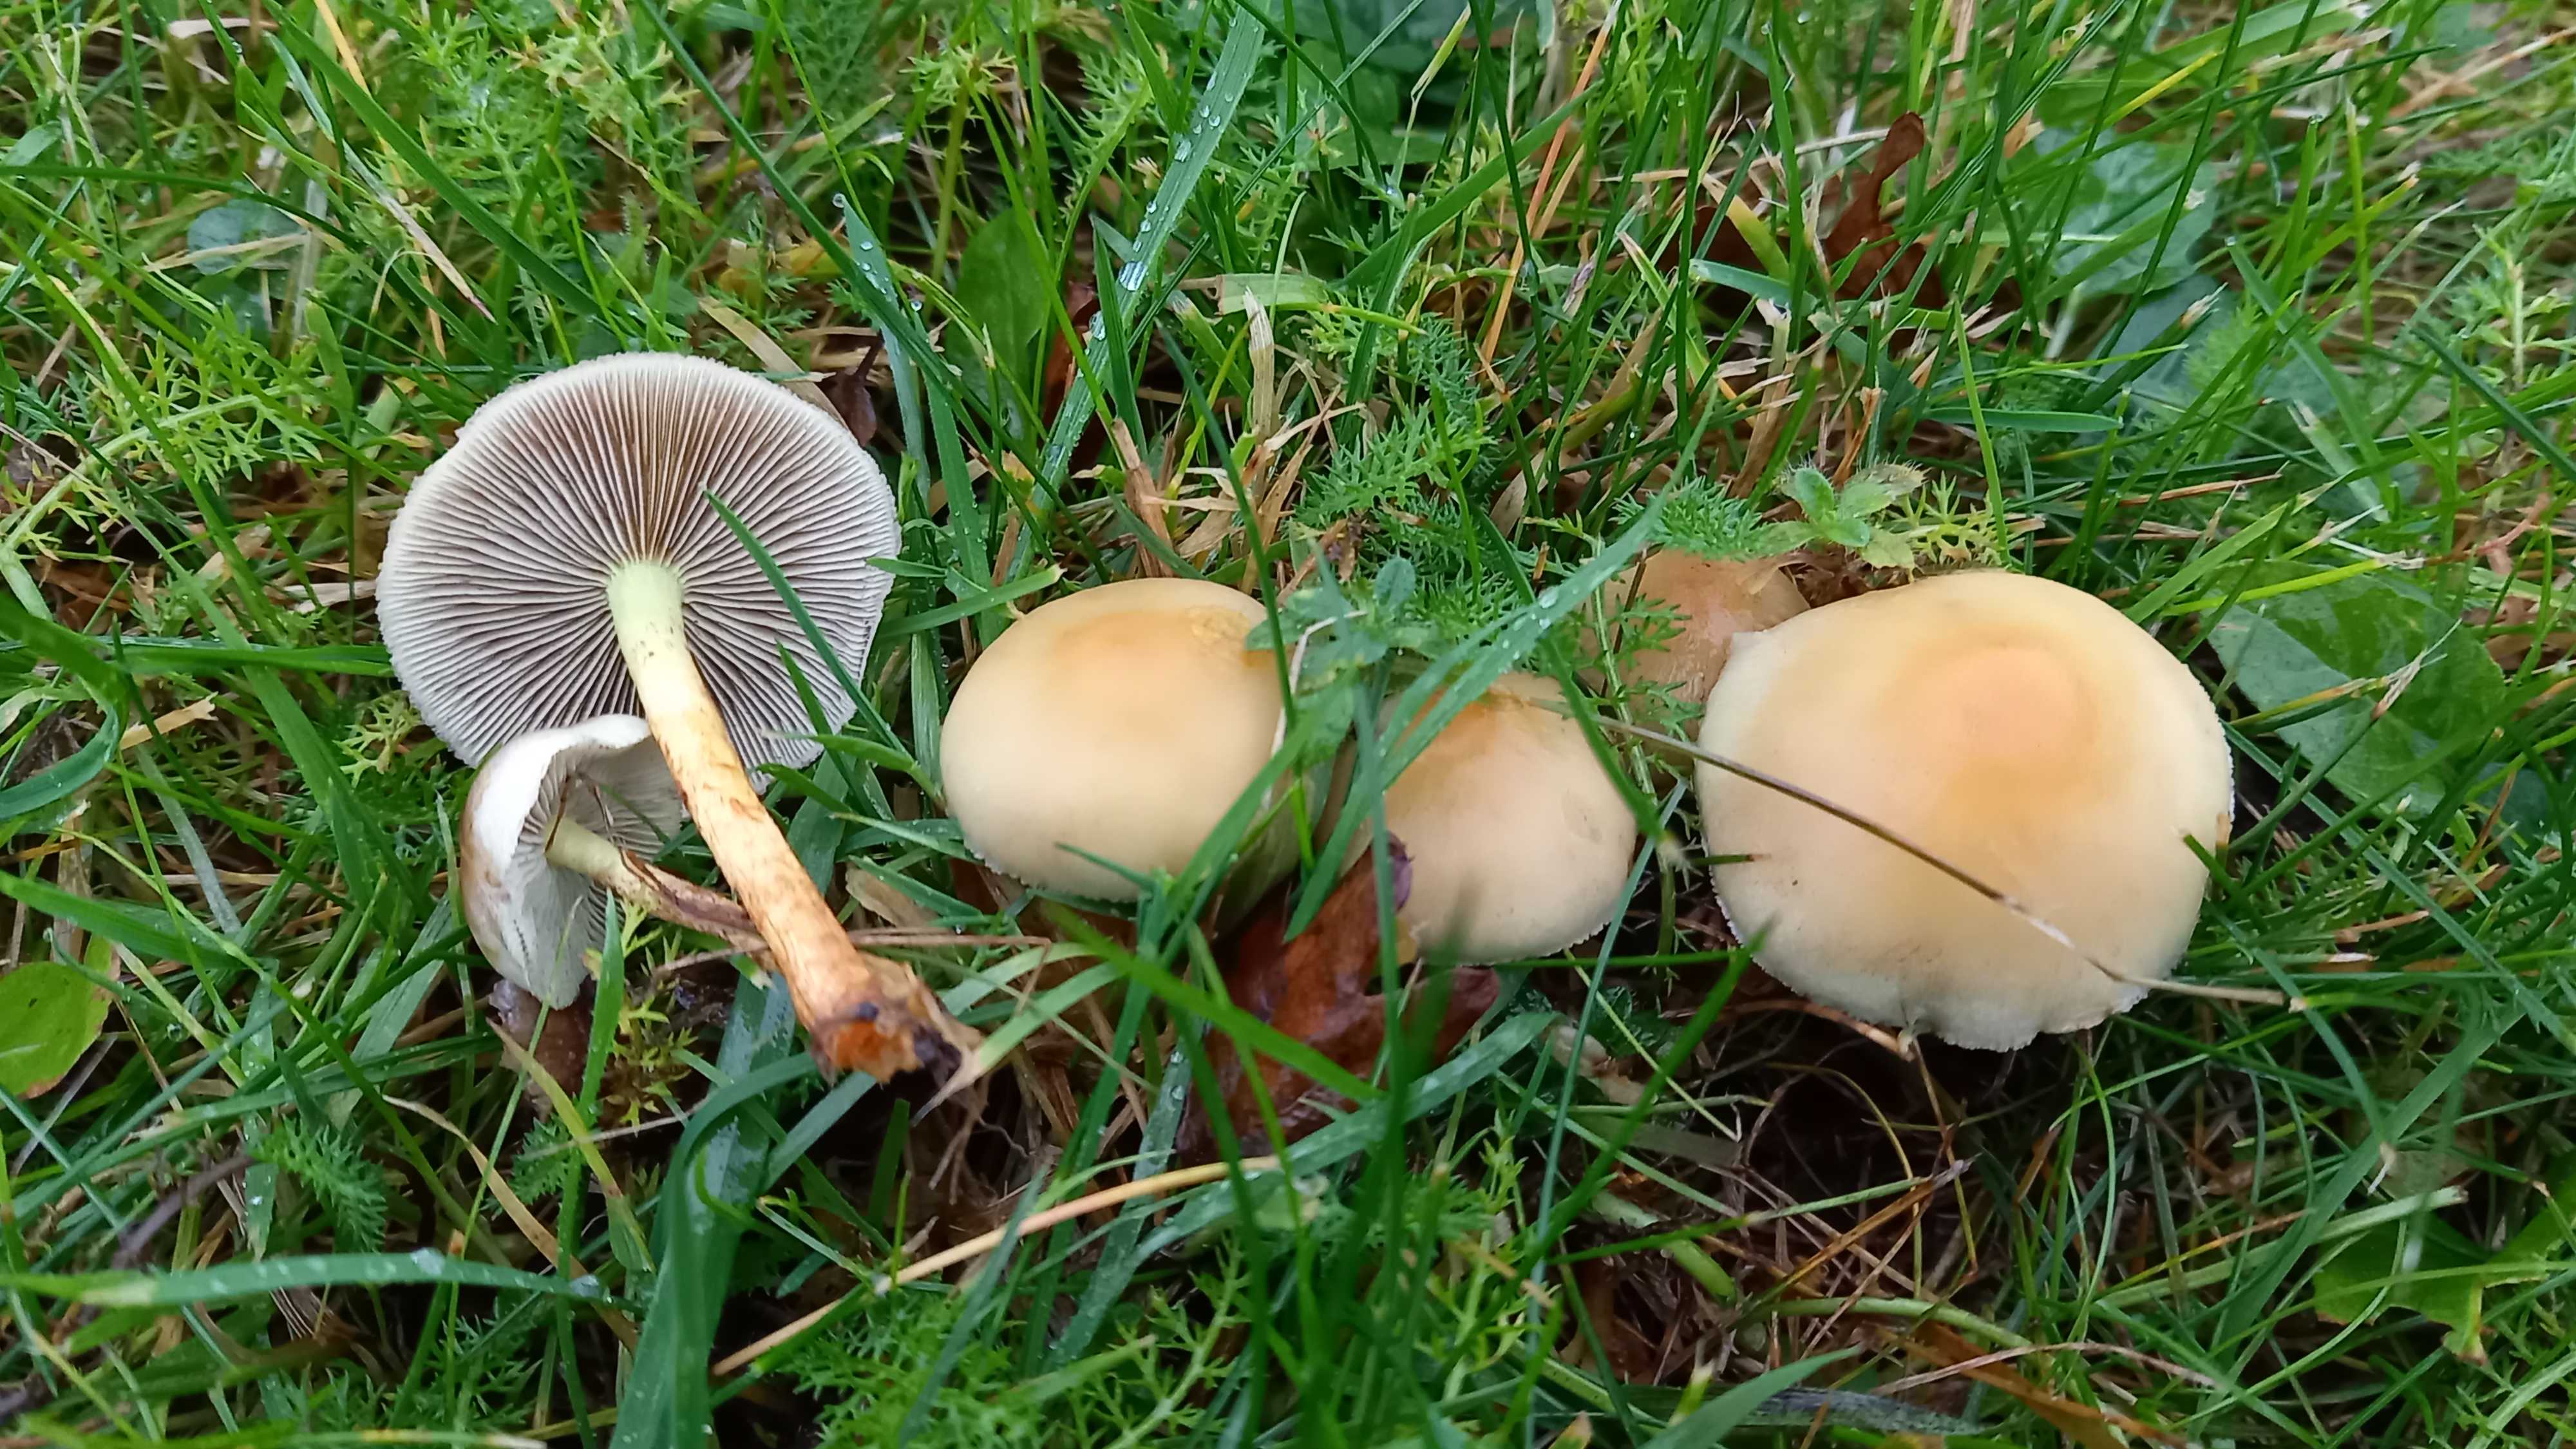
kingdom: Fungi
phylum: Basidiomycota
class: Agaricomycetes
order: Agaricales
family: Strophariaceae
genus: Hypholoma
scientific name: Hypholoma fasciculare
